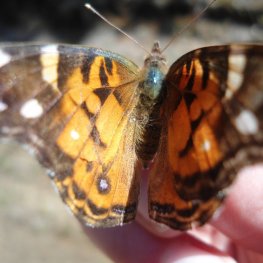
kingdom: Animalia
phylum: Arthropoda
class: Insecta
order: Lepidoptera
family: Nymphalidae
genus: Vanessa
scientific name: Vanessa virginiensis
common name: American Lady
